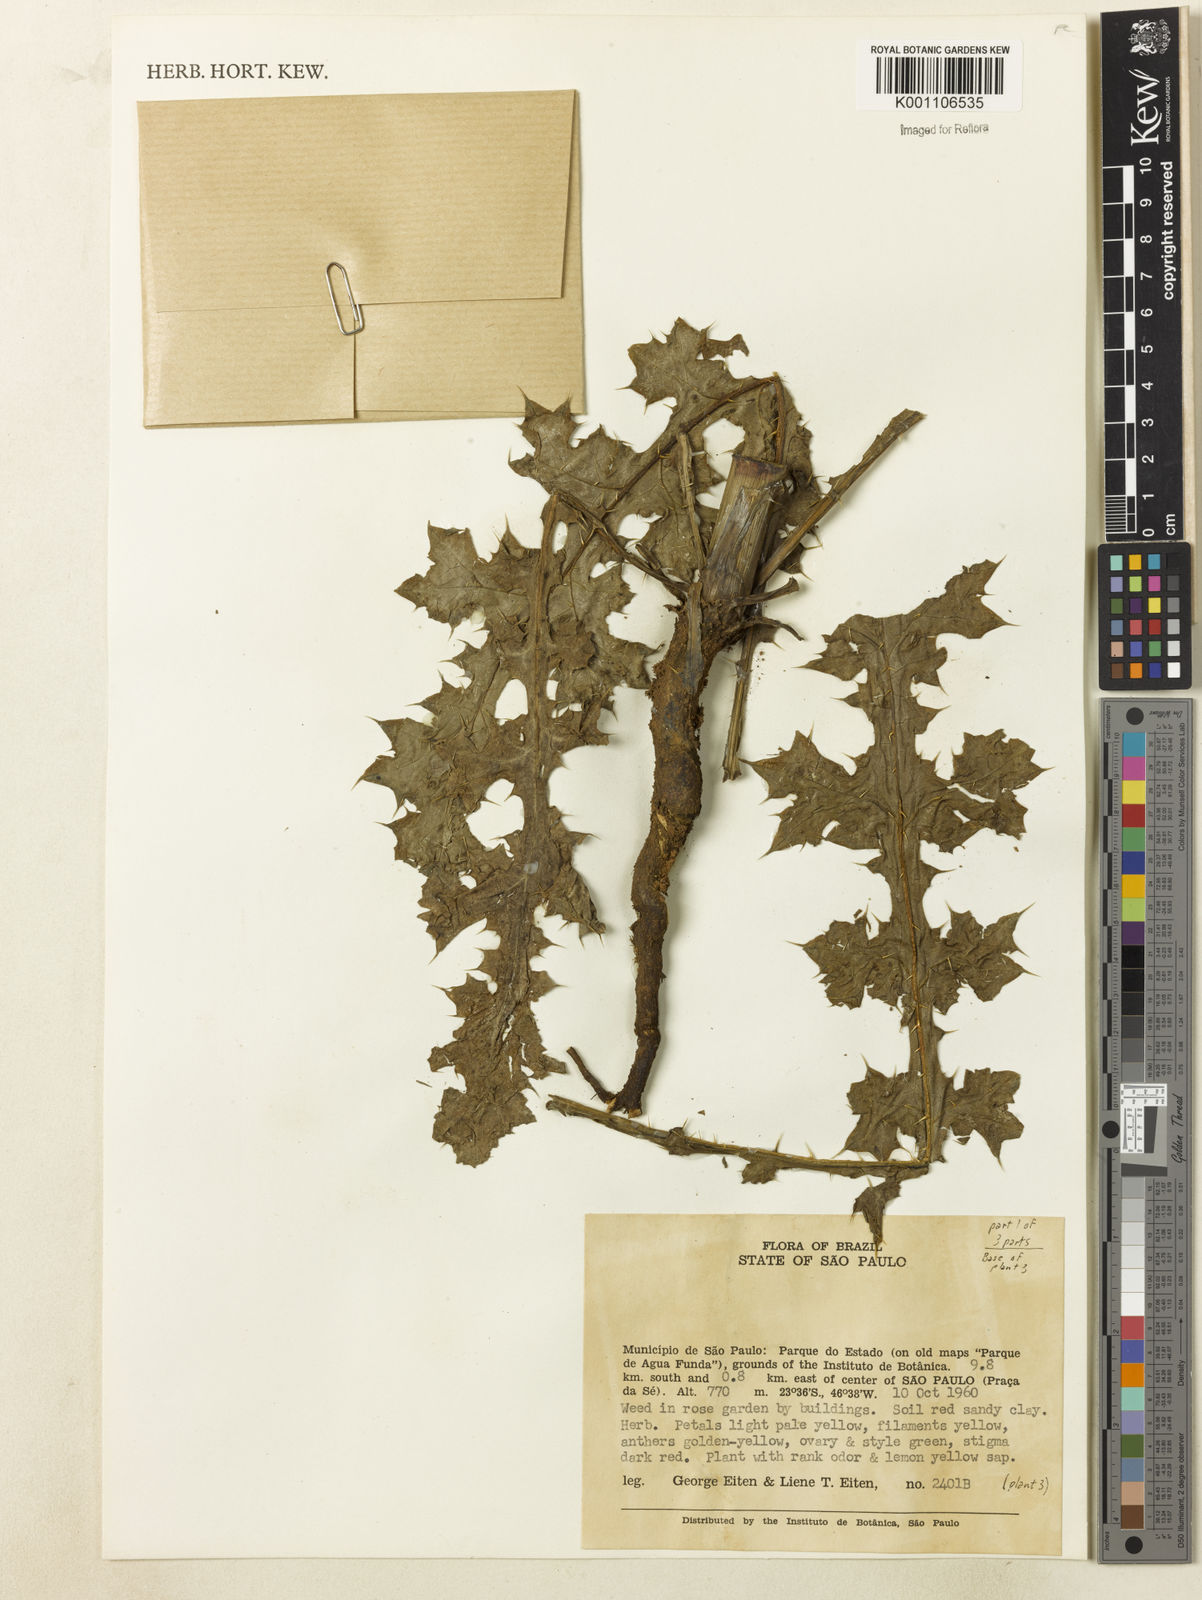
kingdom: Plantae
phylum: Tracheophyta
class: Magnoliopsida
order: Ranunculales
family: Papaveraceae
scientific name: Papaveraceae
